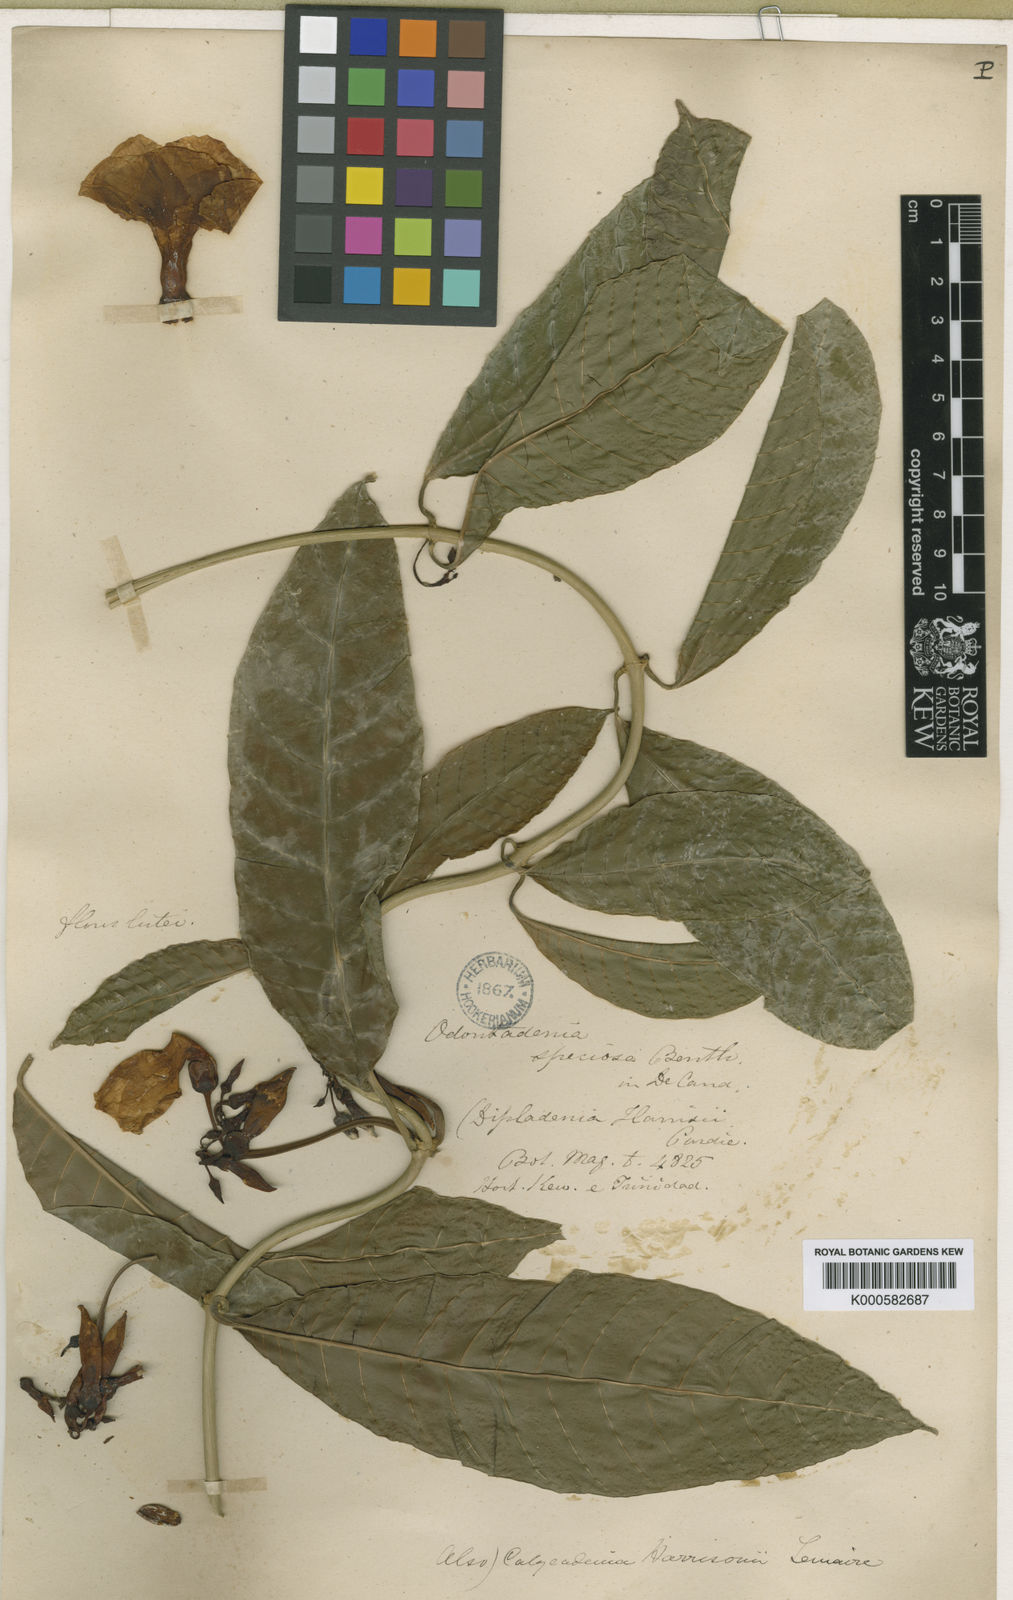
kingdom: Plantae
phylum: Tracheophyta
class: Magnoliopsida
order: Gentianales
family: Apocynaceae
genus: Odontadenia
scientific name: Odontadenia semidigyna
